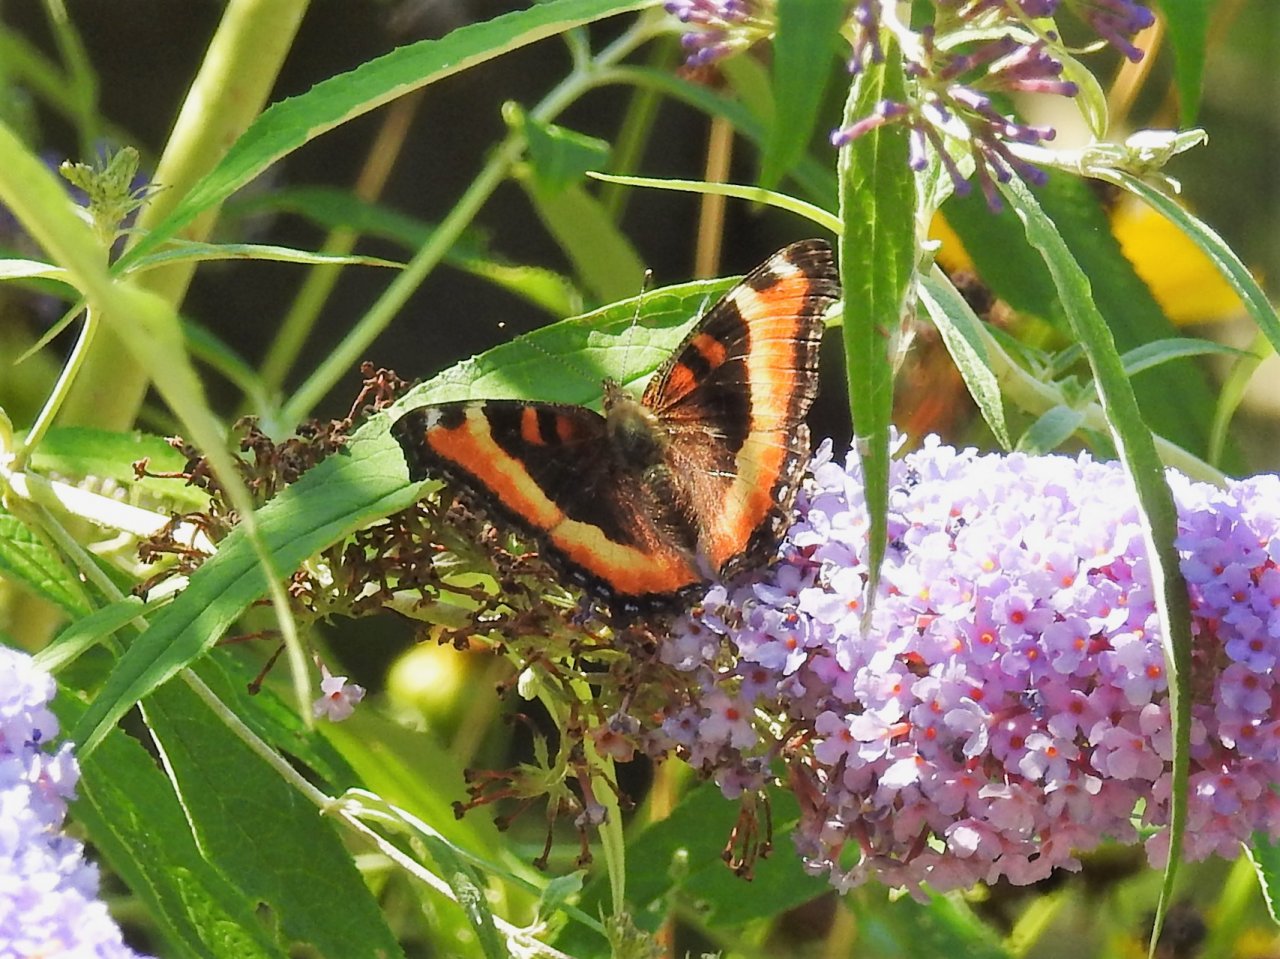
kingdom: Animalia
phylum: Arthropoda
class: Insecta
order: Lepidoptera
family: Nymphalidae
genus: Aglais
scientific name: Aglais milberti
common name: Milbert's Tortoiseshell
